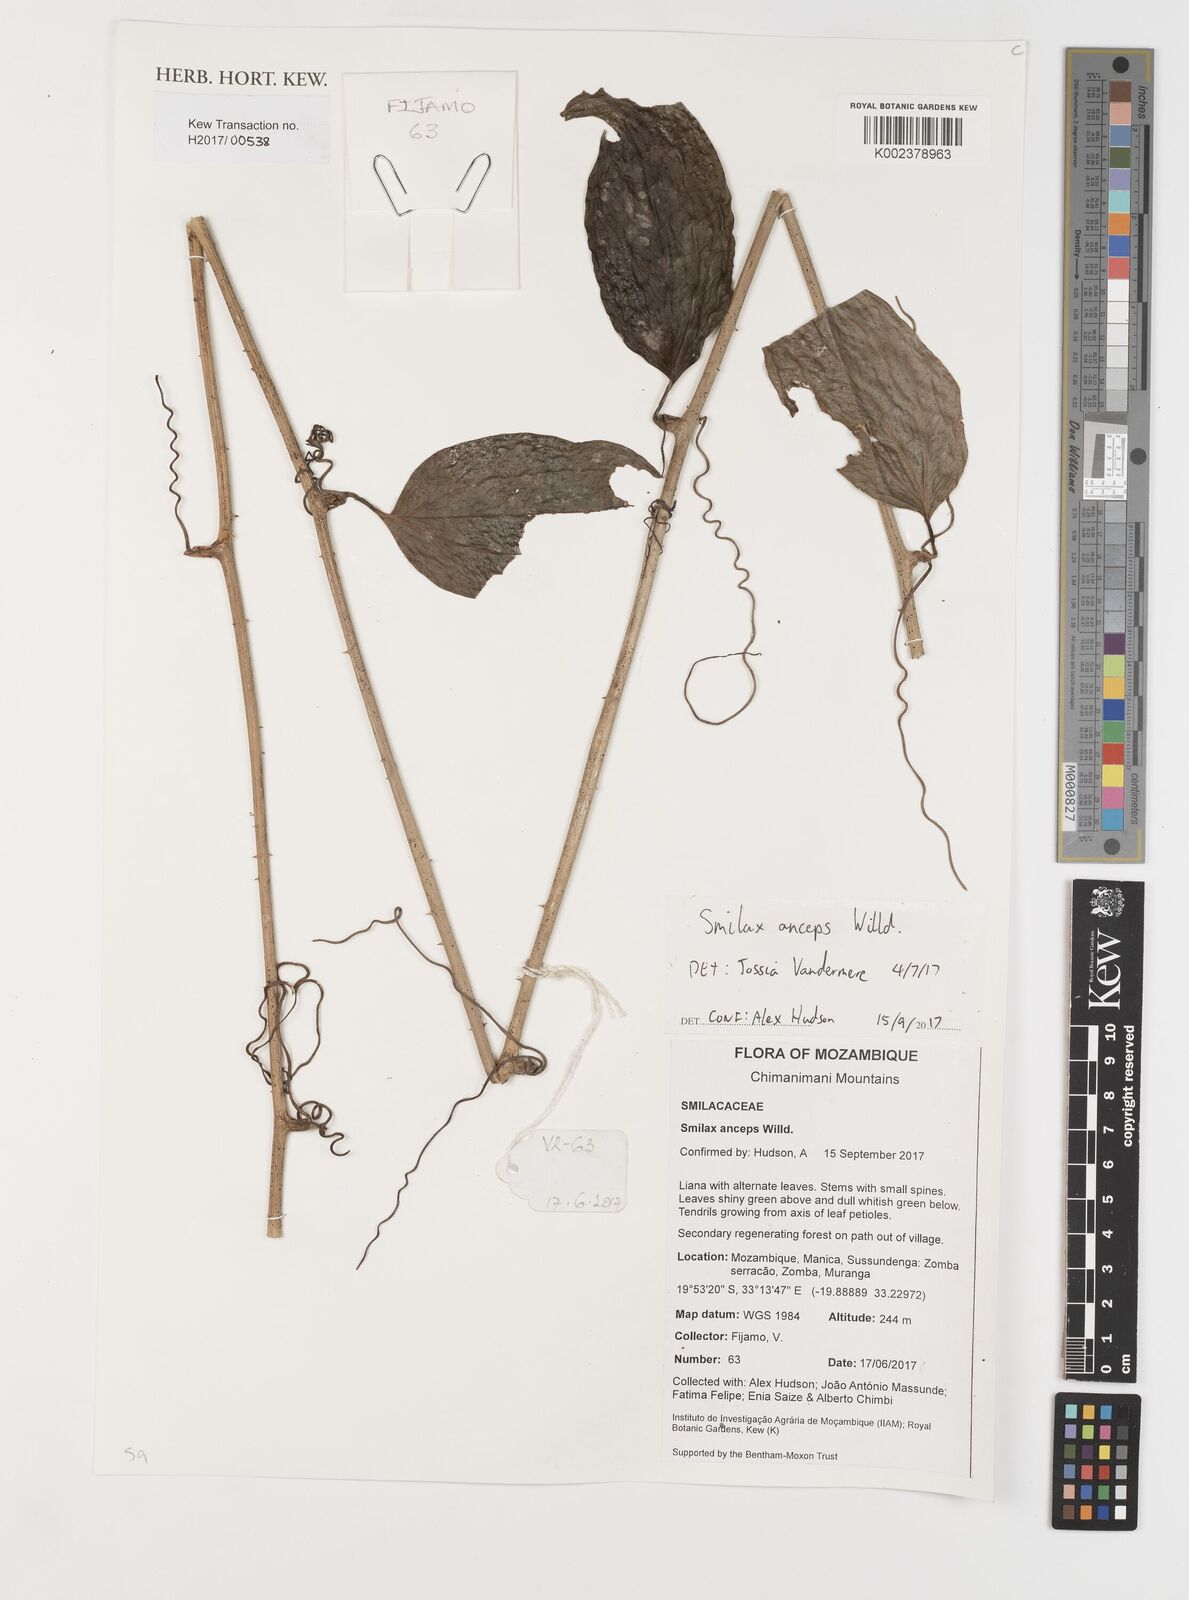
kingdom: Plantae
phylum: Tracheophyta
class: Liliopsida
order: Liliales
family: Smilacaceae
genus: Smilax
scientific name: Smilax anceps
